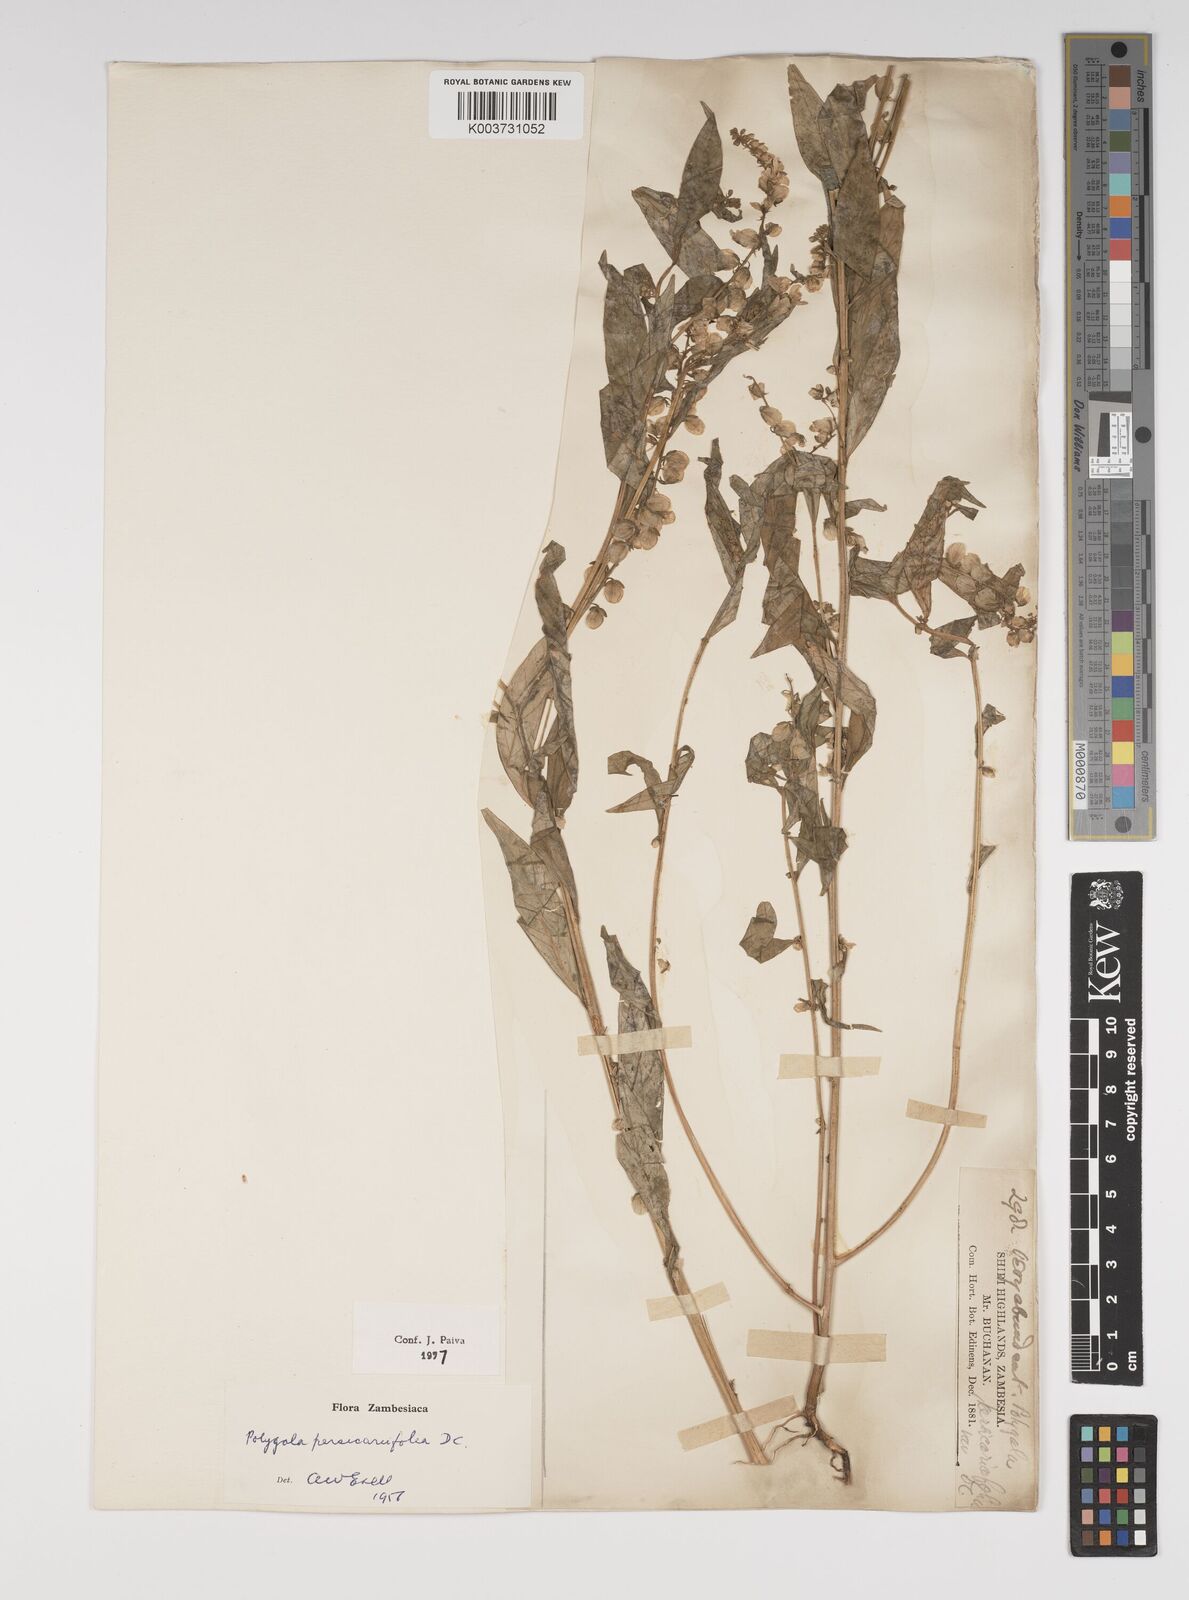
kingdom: Plantae
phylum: Tracheophyta
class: Magnoliopsida
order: Fabales
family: Polygalaceae
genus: Polygala
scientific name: Polygala persicariifolia
